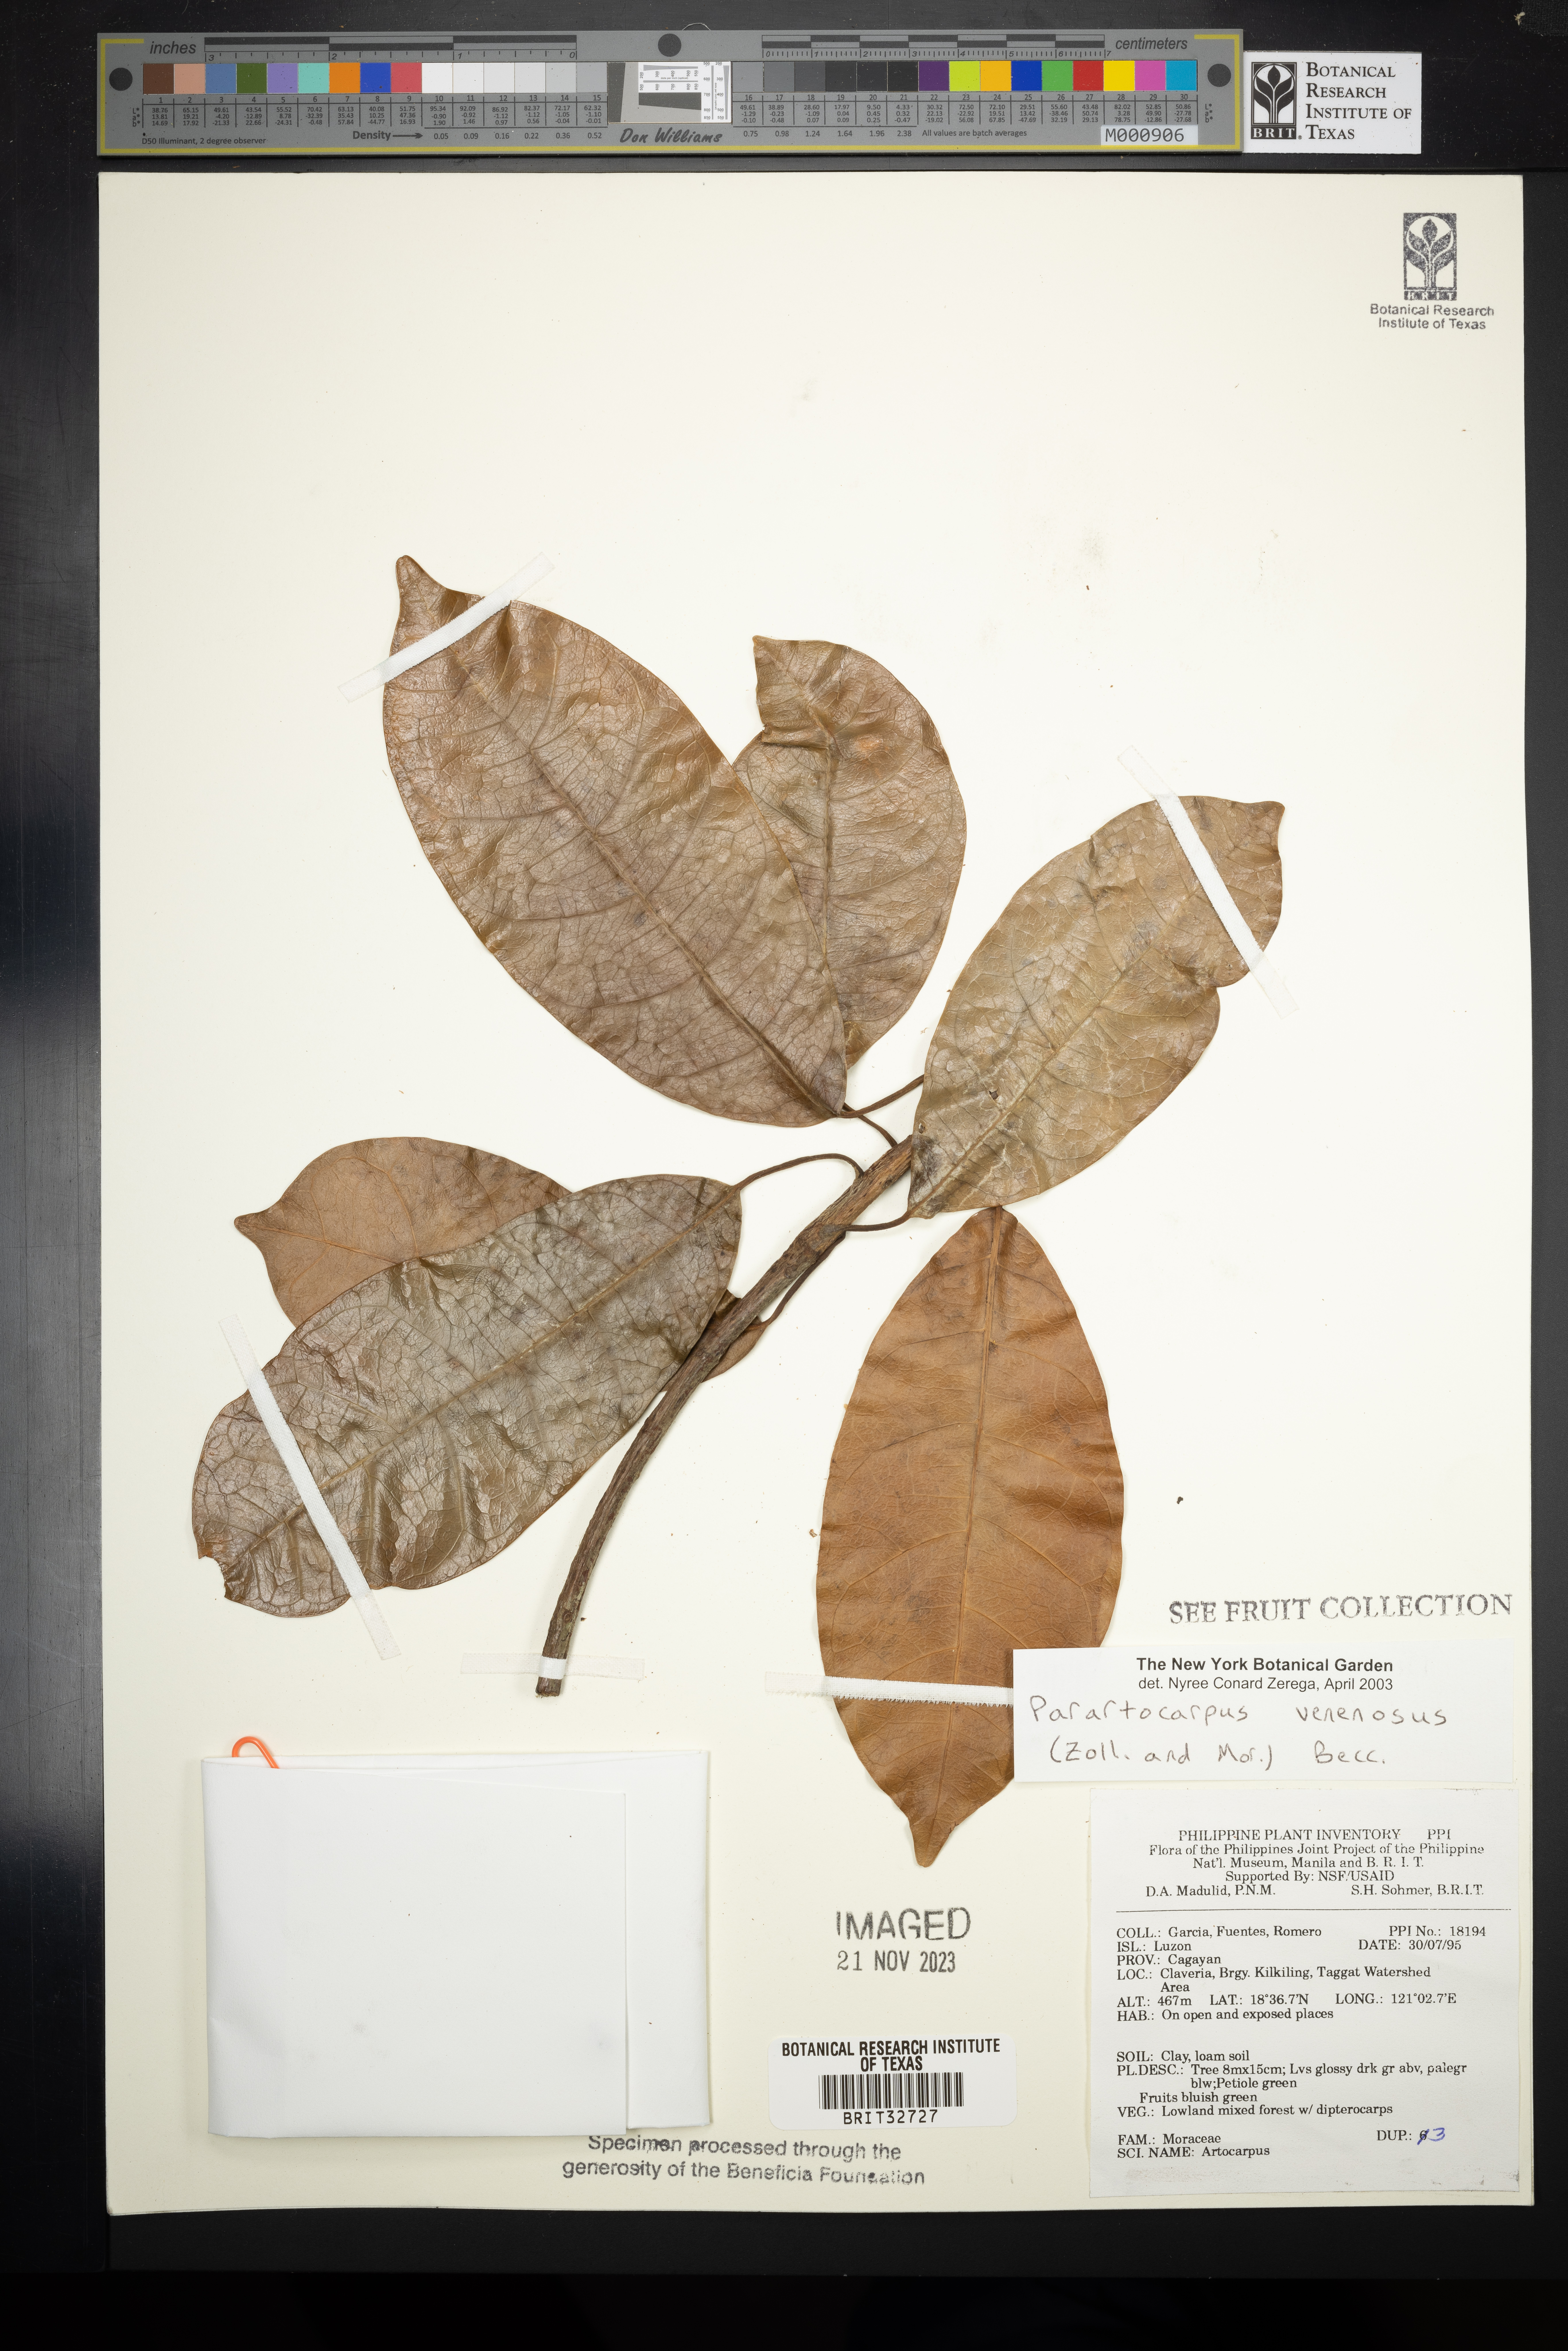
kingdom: Plantae
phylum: Tracheophyta
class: Magnoliopsida
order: Rosales
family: Moraceae
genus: Parartocarpus
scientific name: Parartocarpus venenosa
